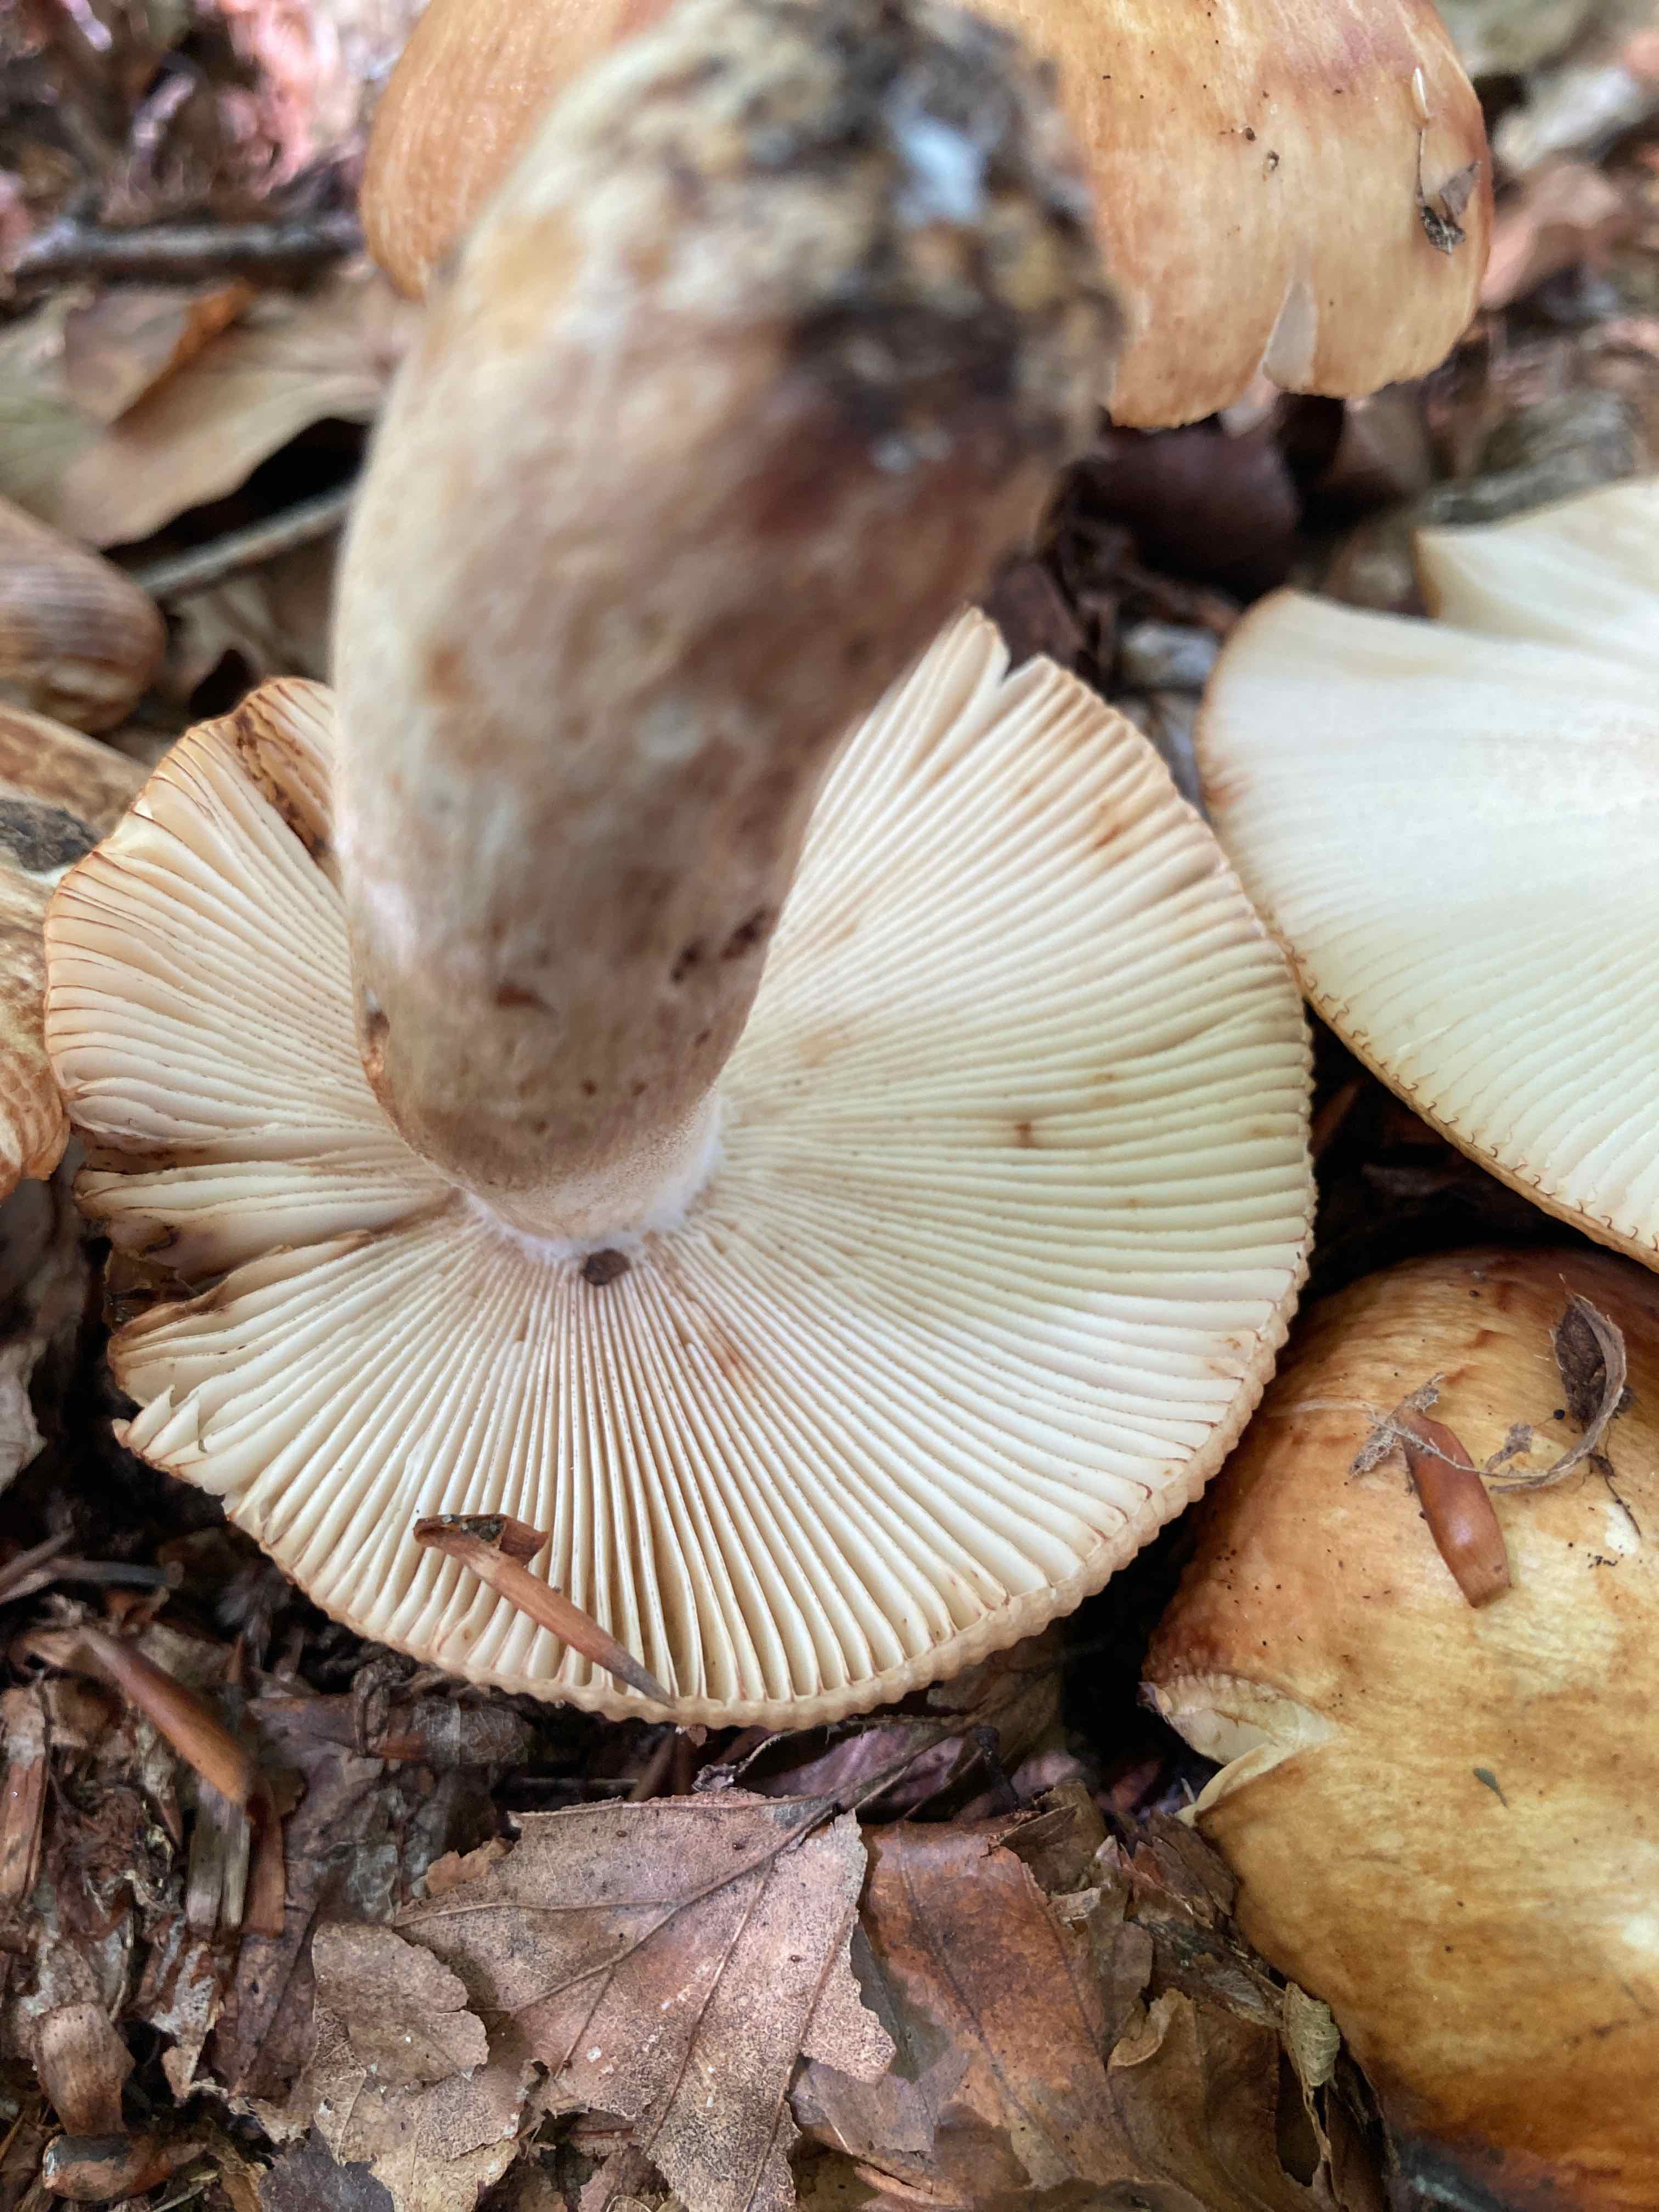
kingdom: Fungi
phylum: Basidiomycota
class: Agaricomycetes
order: Russulales
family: Russulaceae
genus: Russula
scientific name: Russula illota
